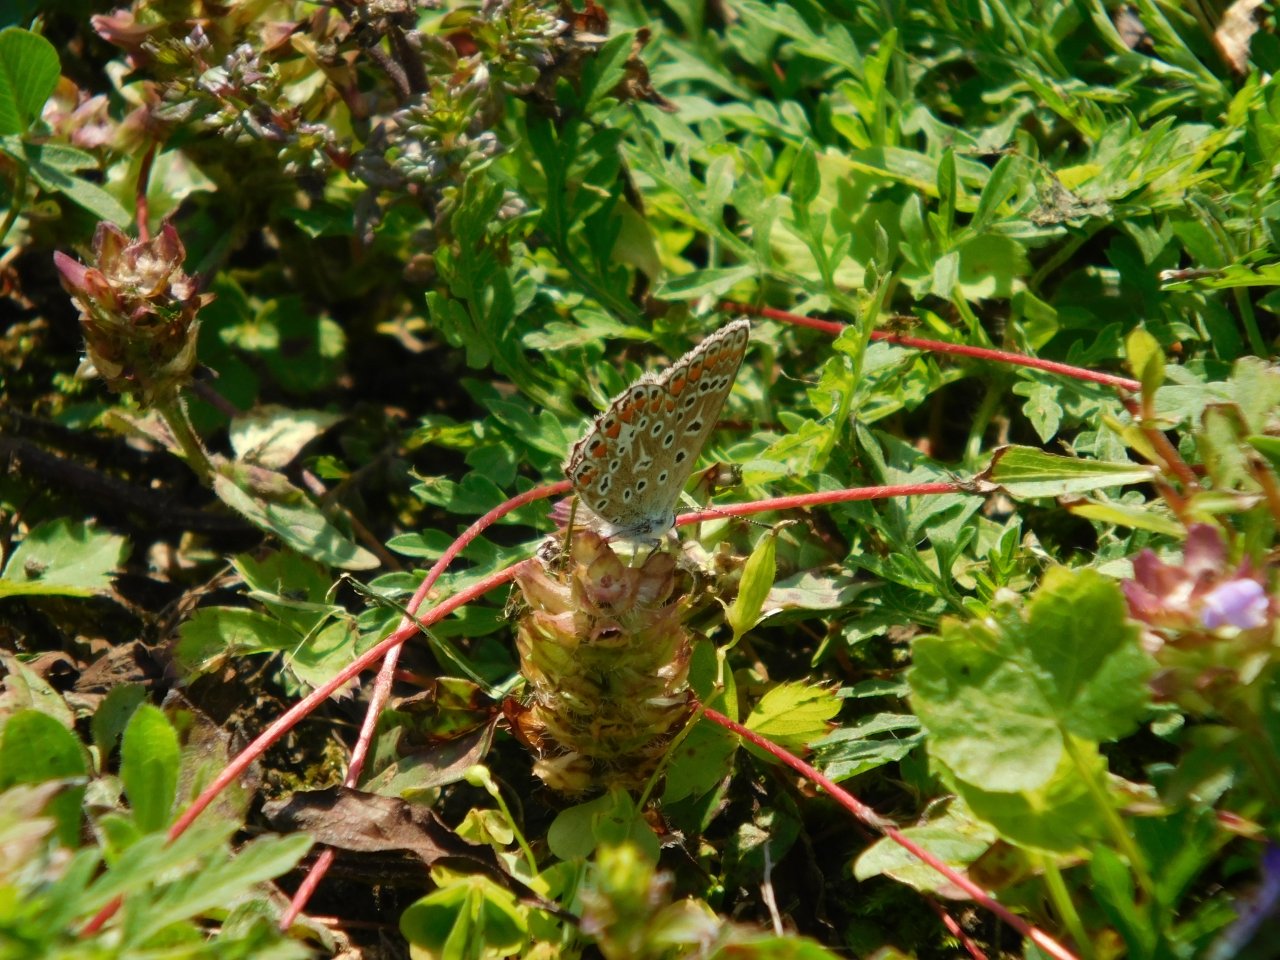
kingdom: Animalia
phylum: Arthropoda
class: Insecta
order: Lepidoptera
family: Lycaenidae
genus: Polyommatus
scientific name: Polyommatus icarus
